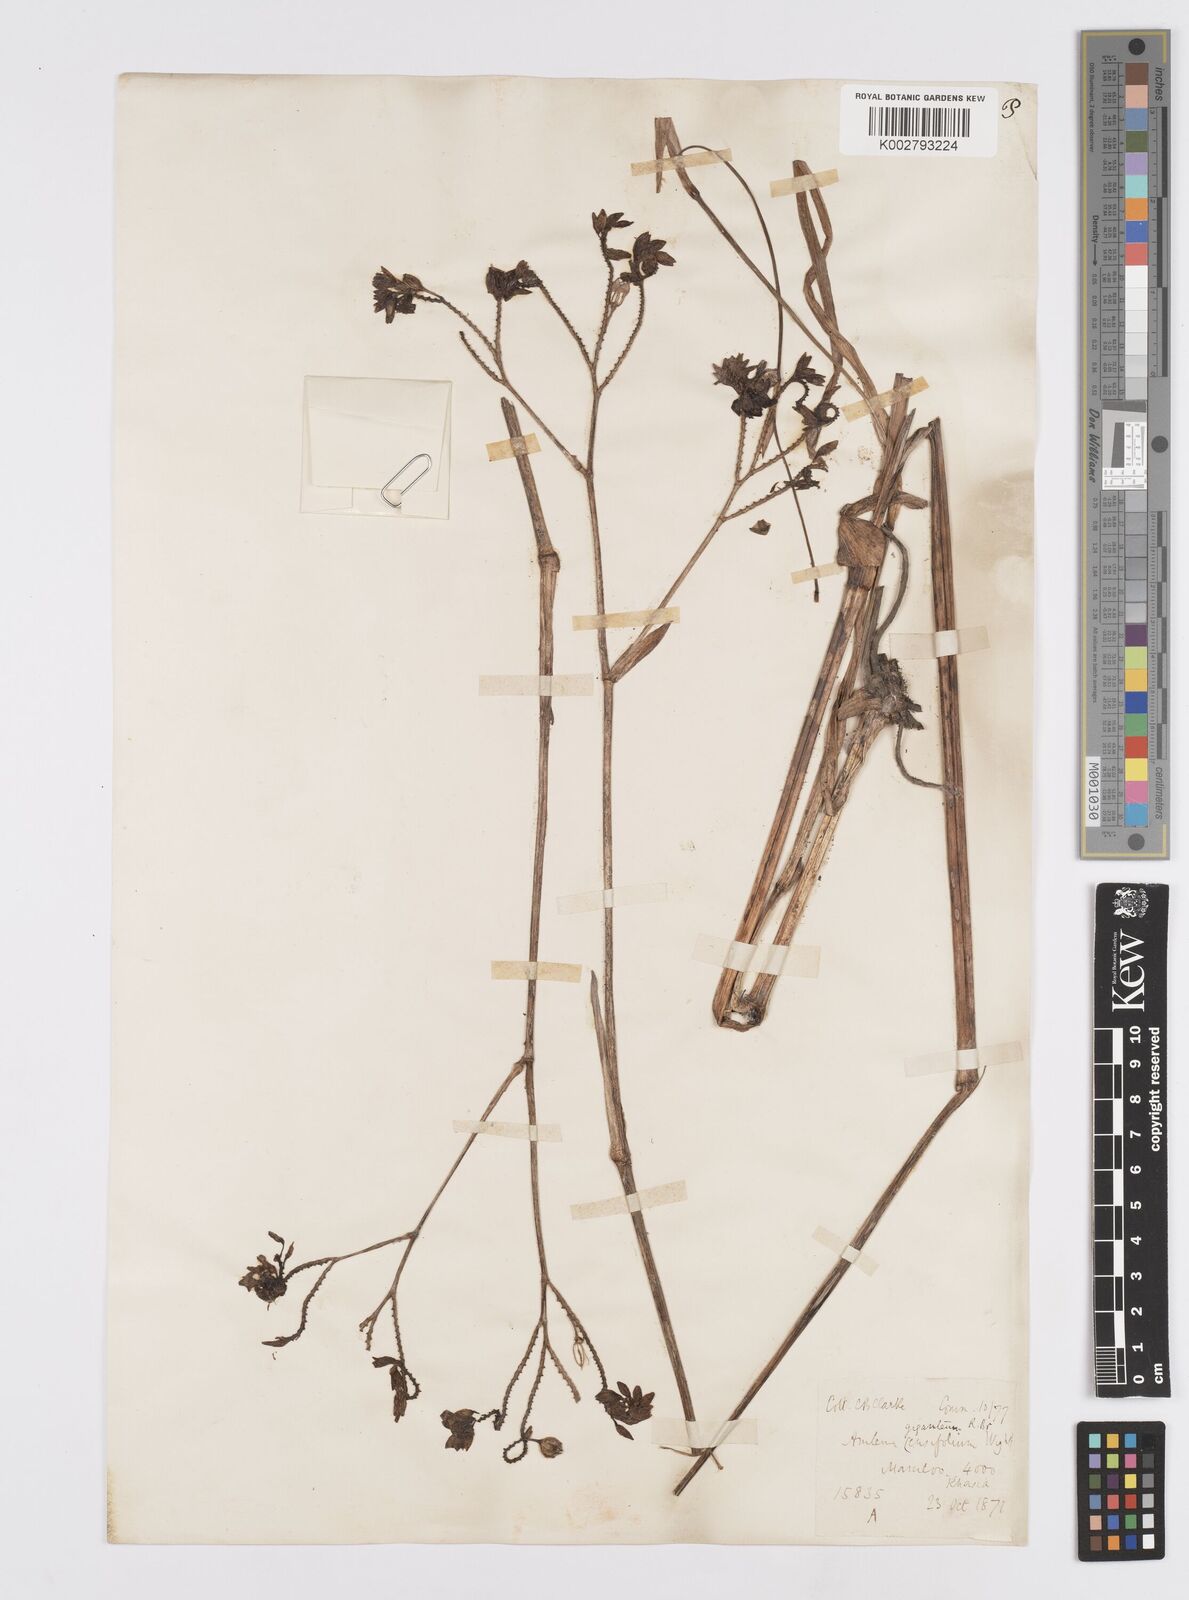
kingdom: Plantae
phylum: Tracheophyta
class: Liliopsida
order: Commelinales
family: Commelinaceae
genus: Murdannia
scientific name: Murdannia gigantea
